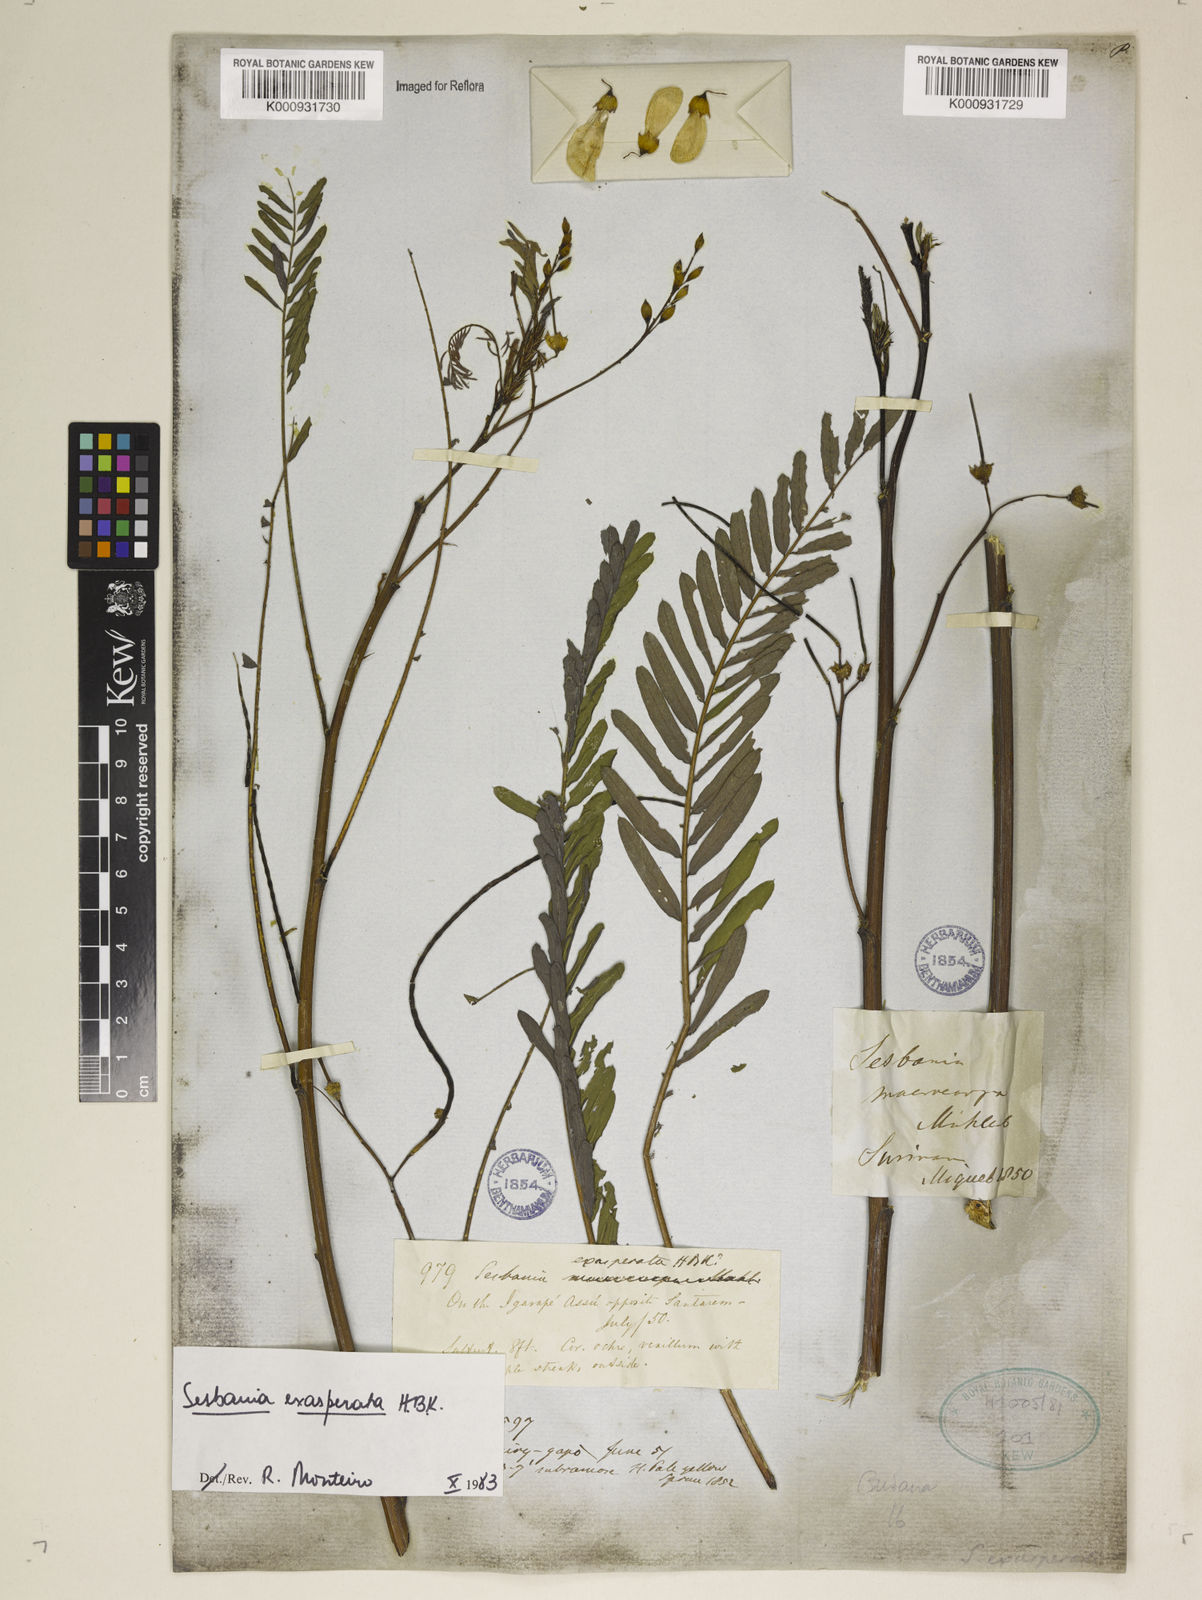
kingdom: Plantae
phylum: Tracheophyta
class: Magnoliopsida
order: Fabales
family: Fabaceae
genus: Sesbania
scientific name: Sesbania exasperata
